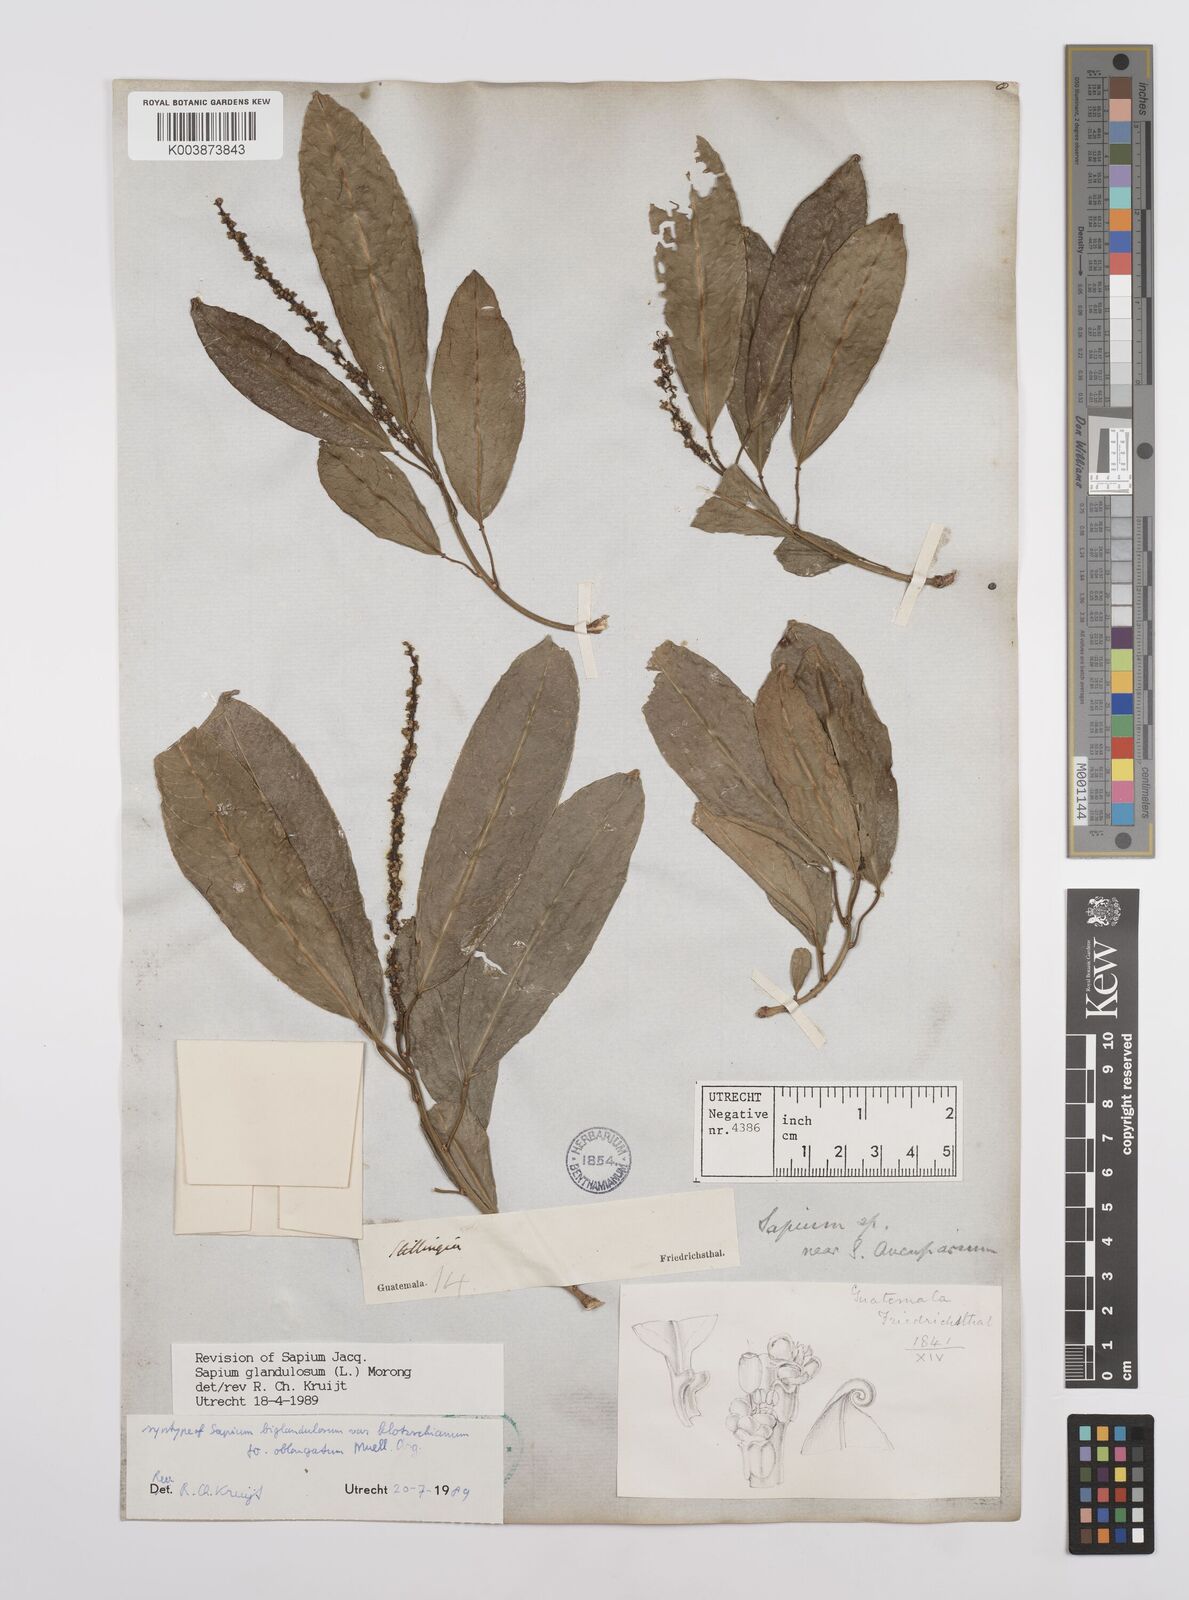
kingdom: Plantae
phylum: Tracheophyta
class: Magnoliopsida
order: Malpighiales
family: Euphorbiaceae
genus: Sapium
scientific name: Sapium glandulosum
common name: Milktree
